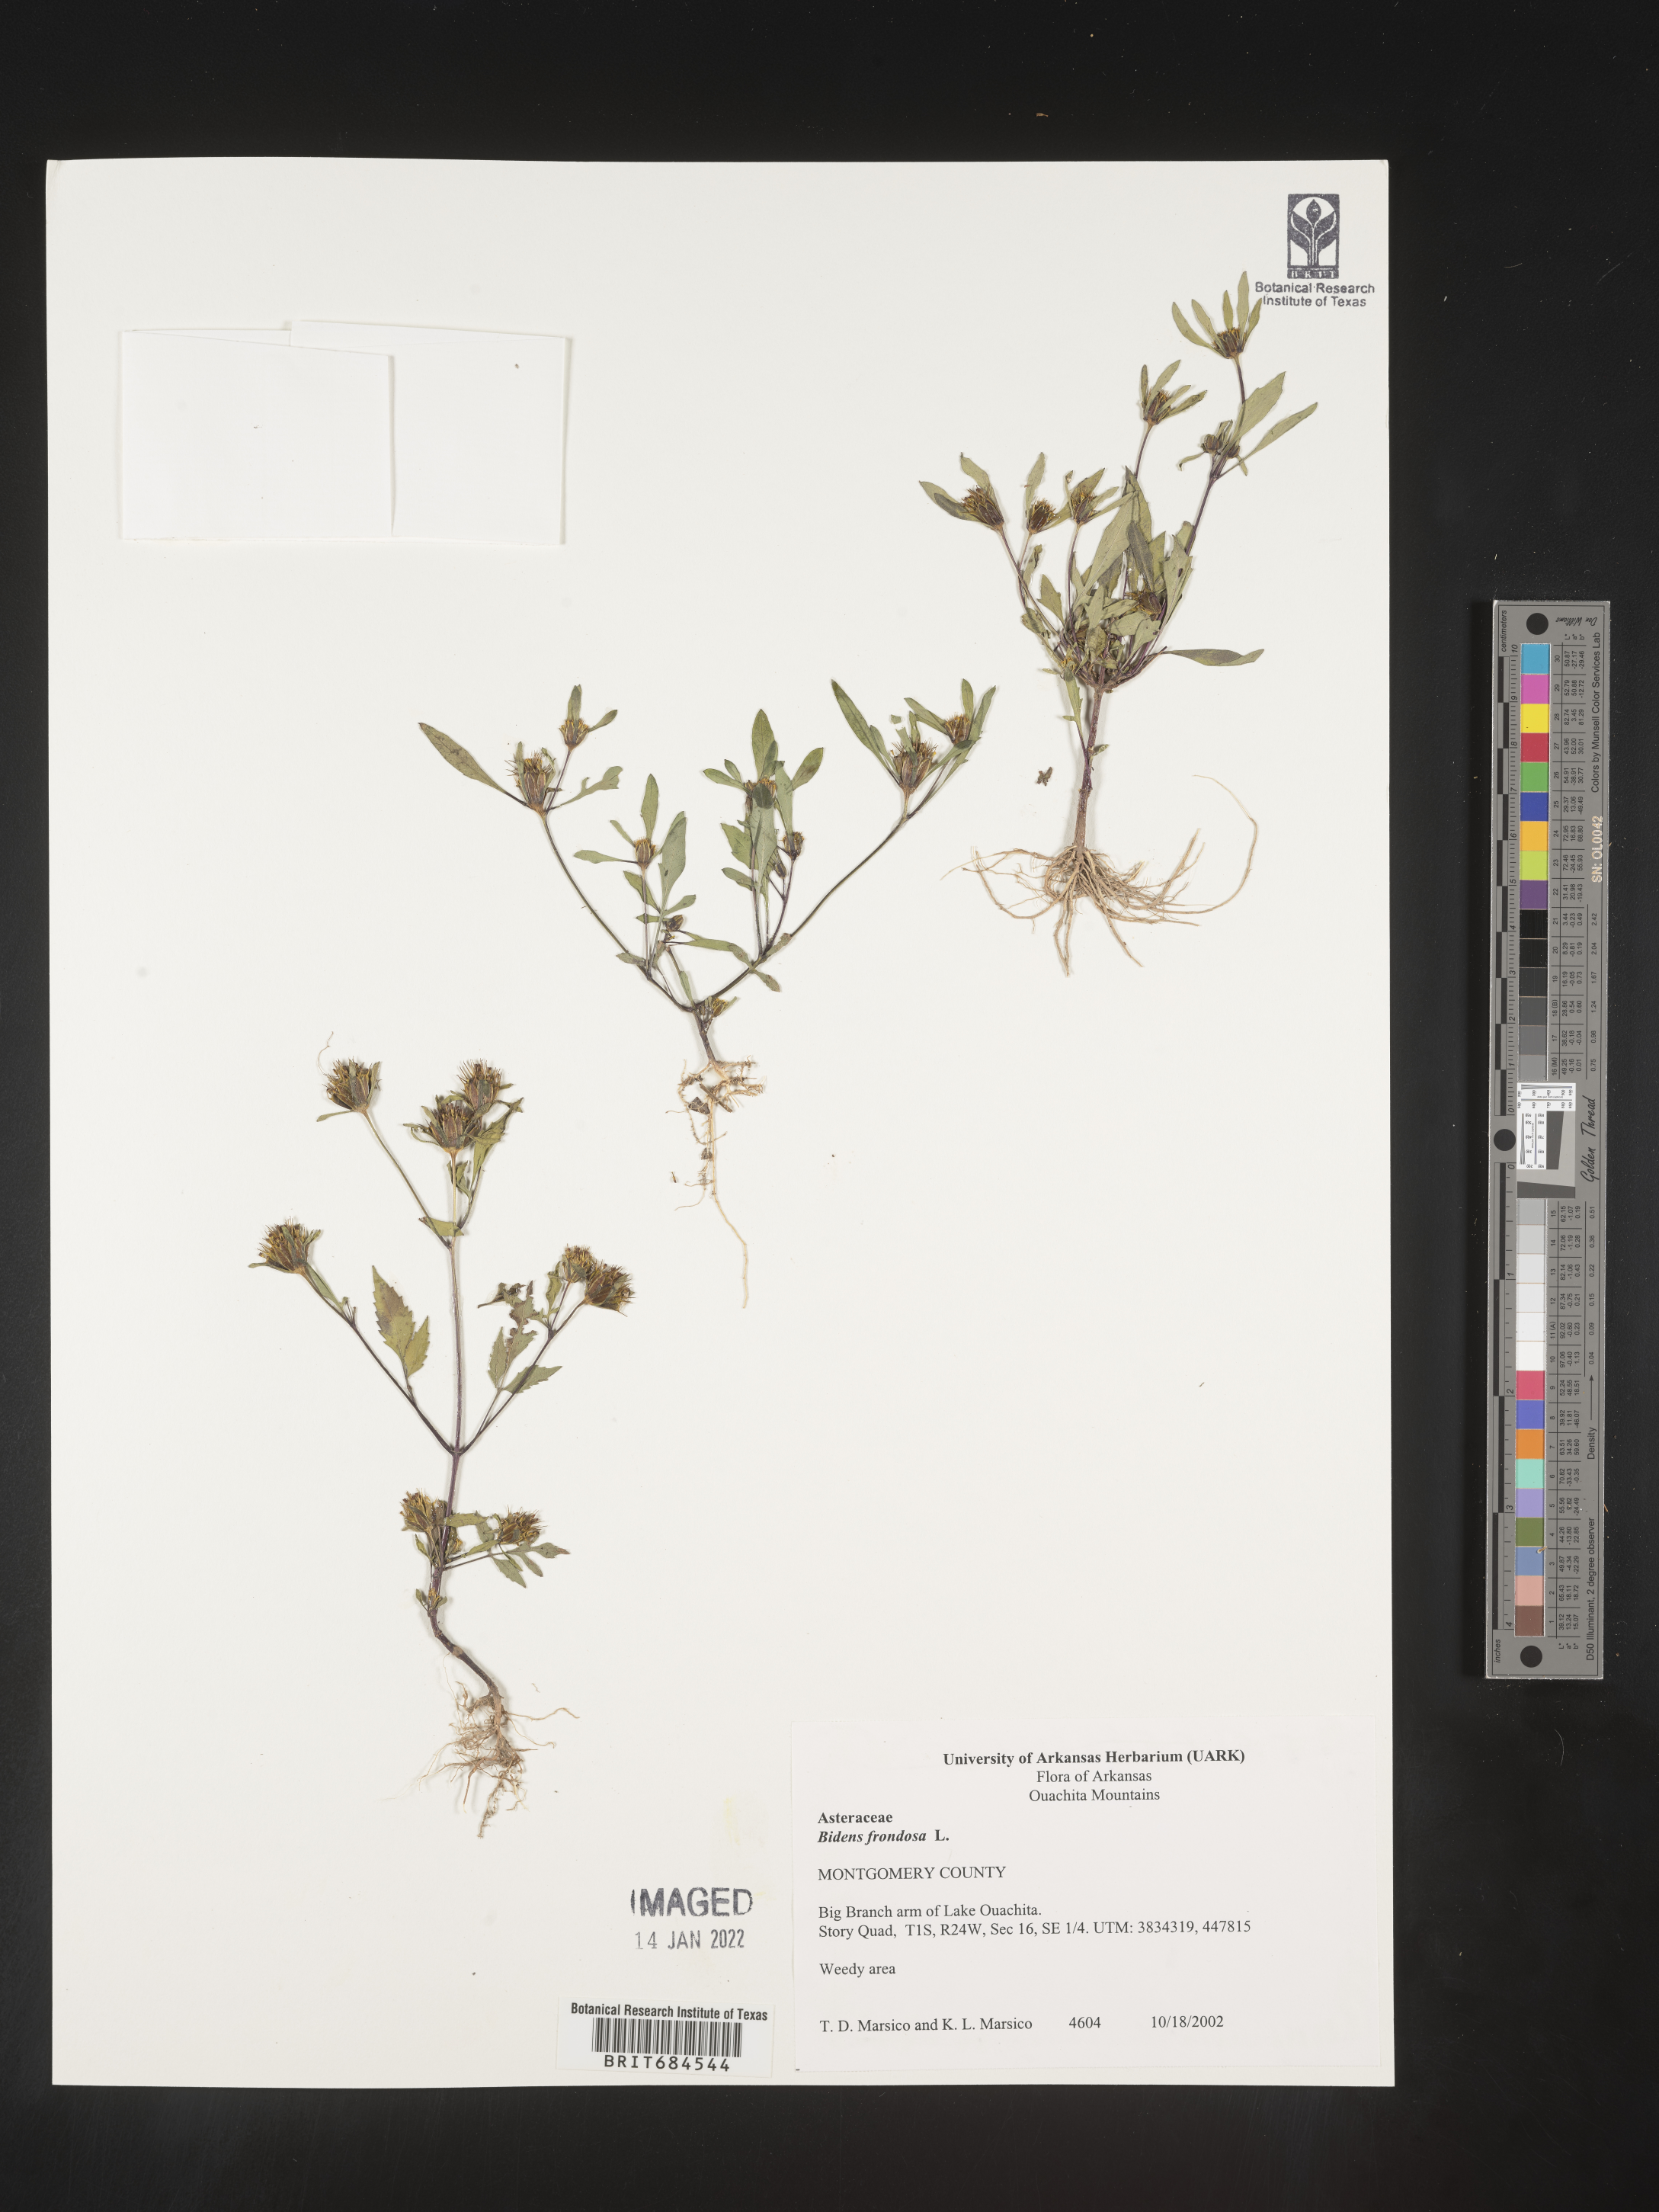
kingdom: Plantae
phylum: Tracheophyta
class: Magnoliopsida
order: Asterales
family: Asteraceae
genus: Bidens
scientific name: Bidens frondosa
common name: Beggarticks
